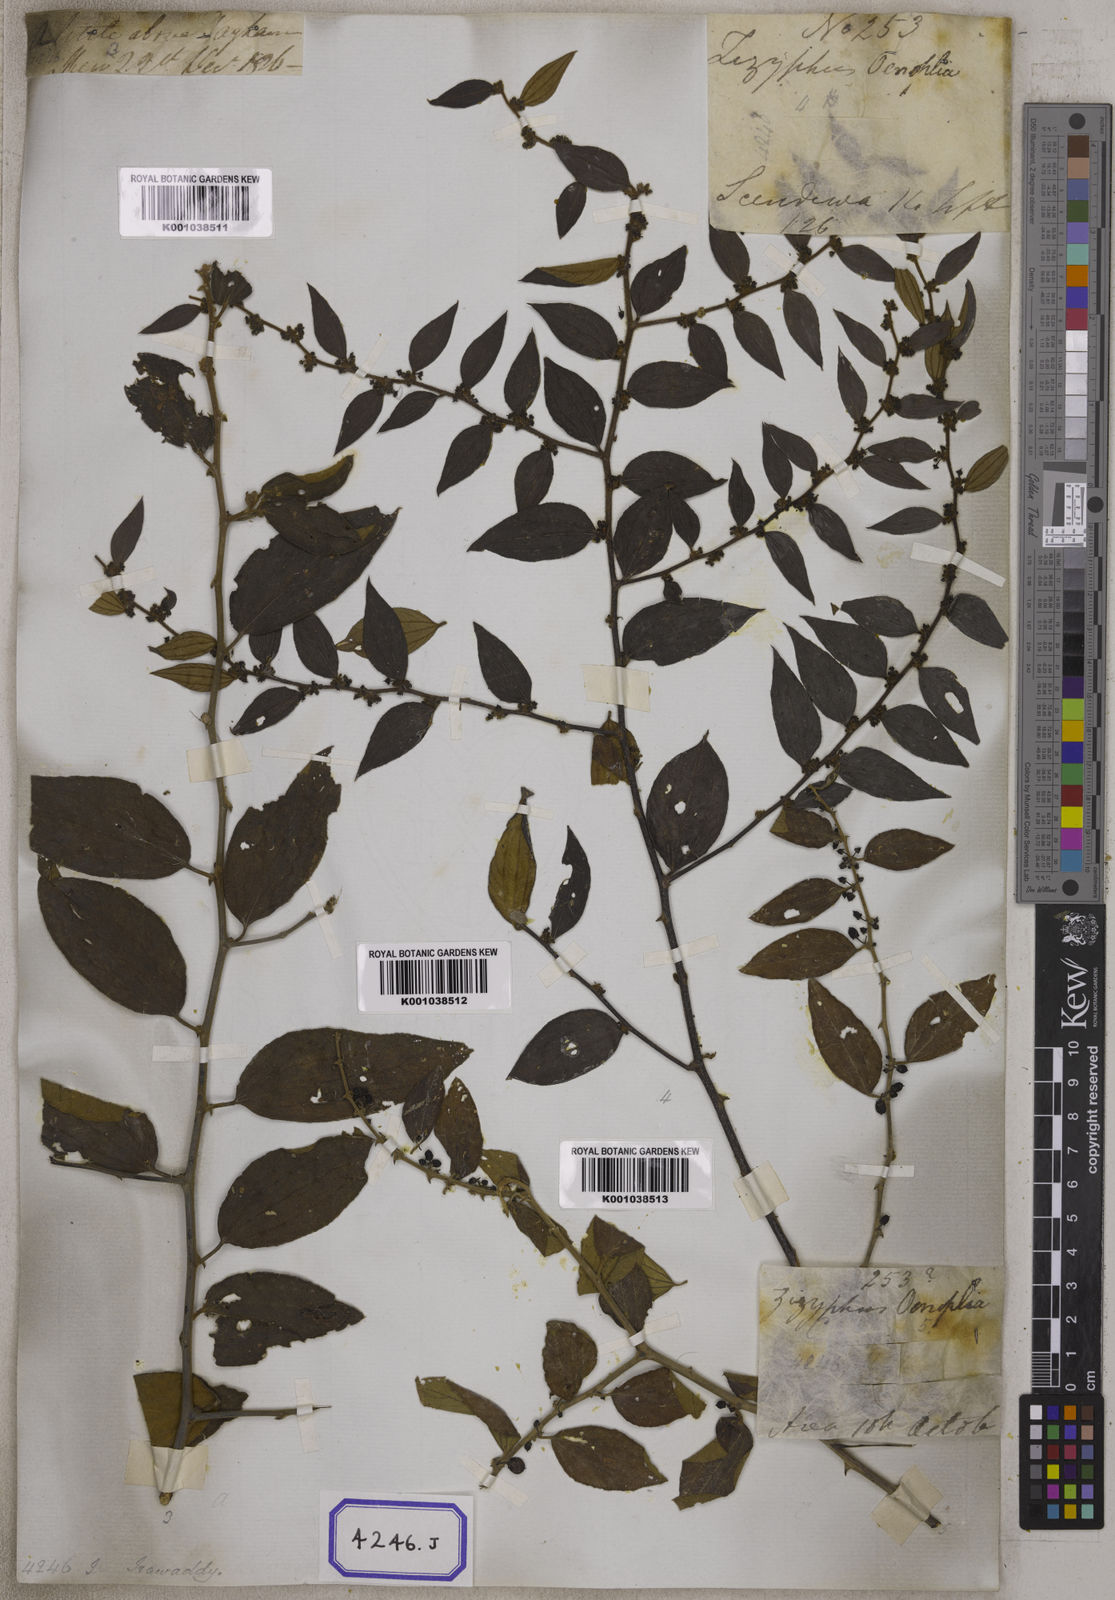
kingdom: Plantae
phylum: Tracheophyta
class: Magnoliopsida
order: Rosales
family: Rhamnaceae
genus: Ziziphus
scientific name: Ziziphus
